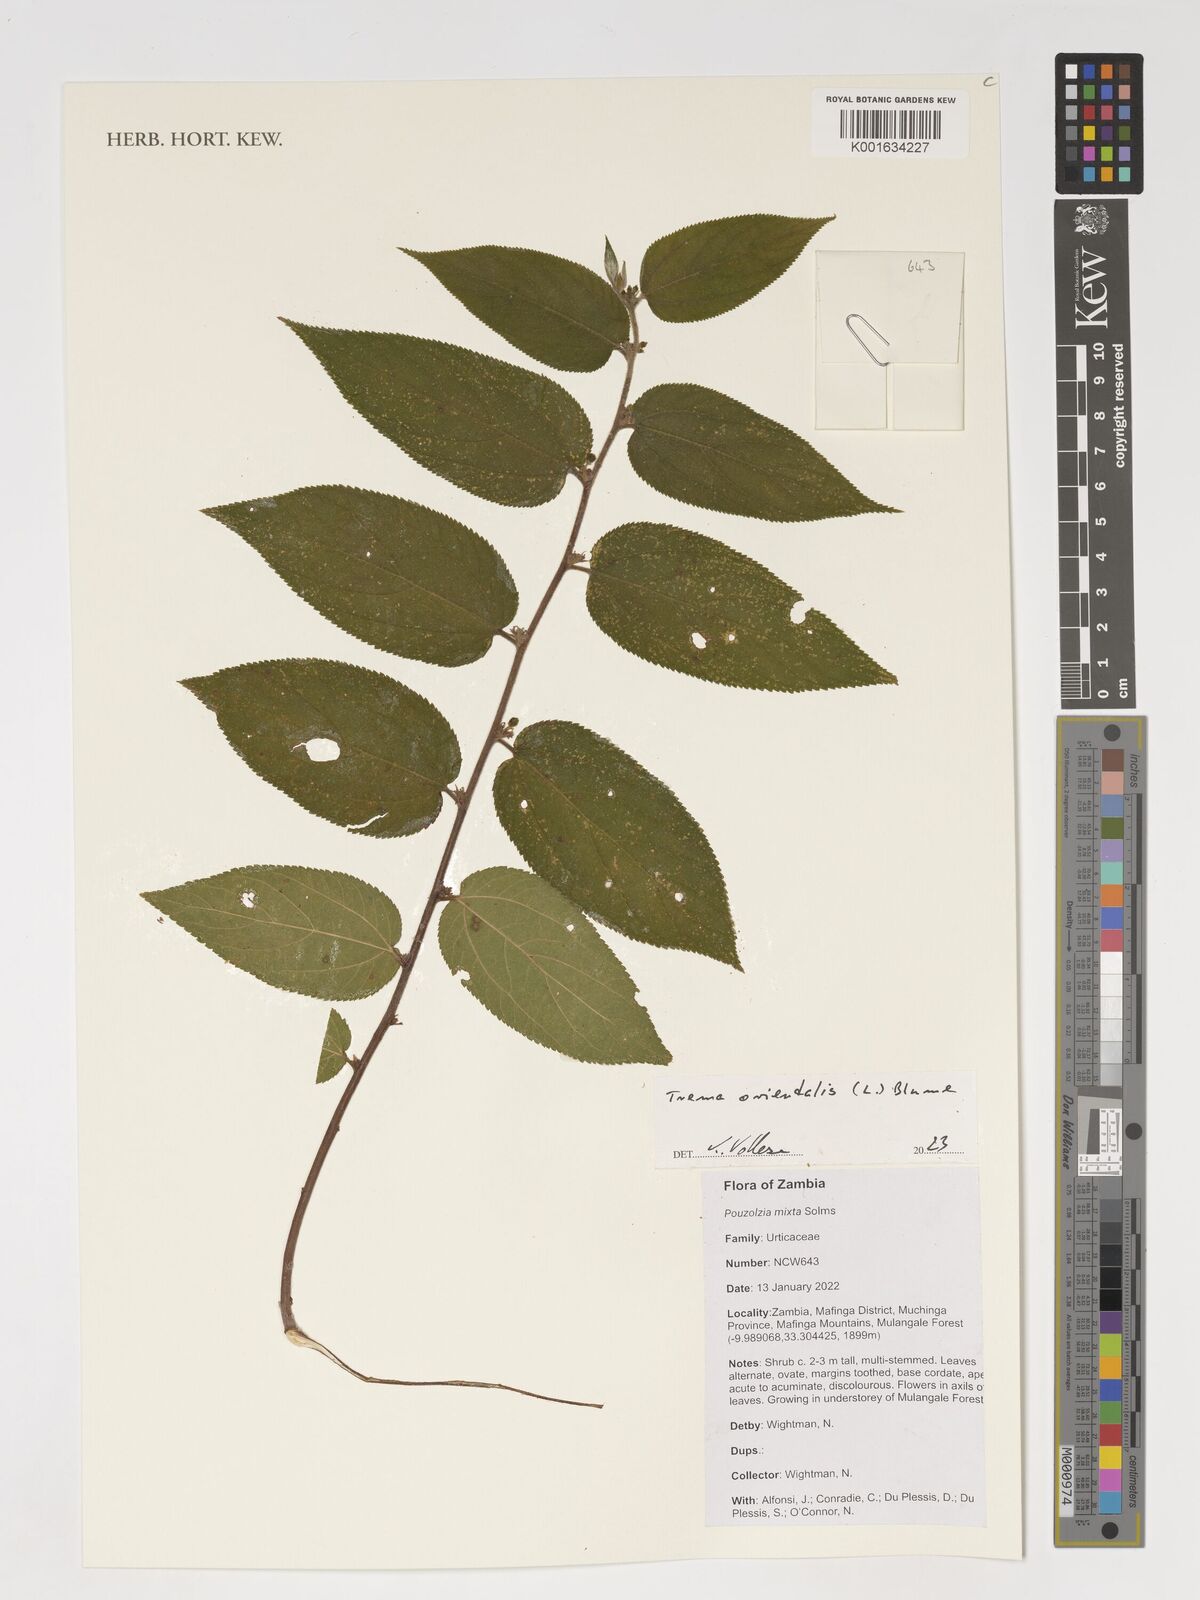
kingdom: Plantae
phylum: Tracheophyta
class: Magnoliopsida
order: Rosales
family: Cannabaceae
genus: Trema
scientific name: Trema orientale
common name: Indian charcoal tree
